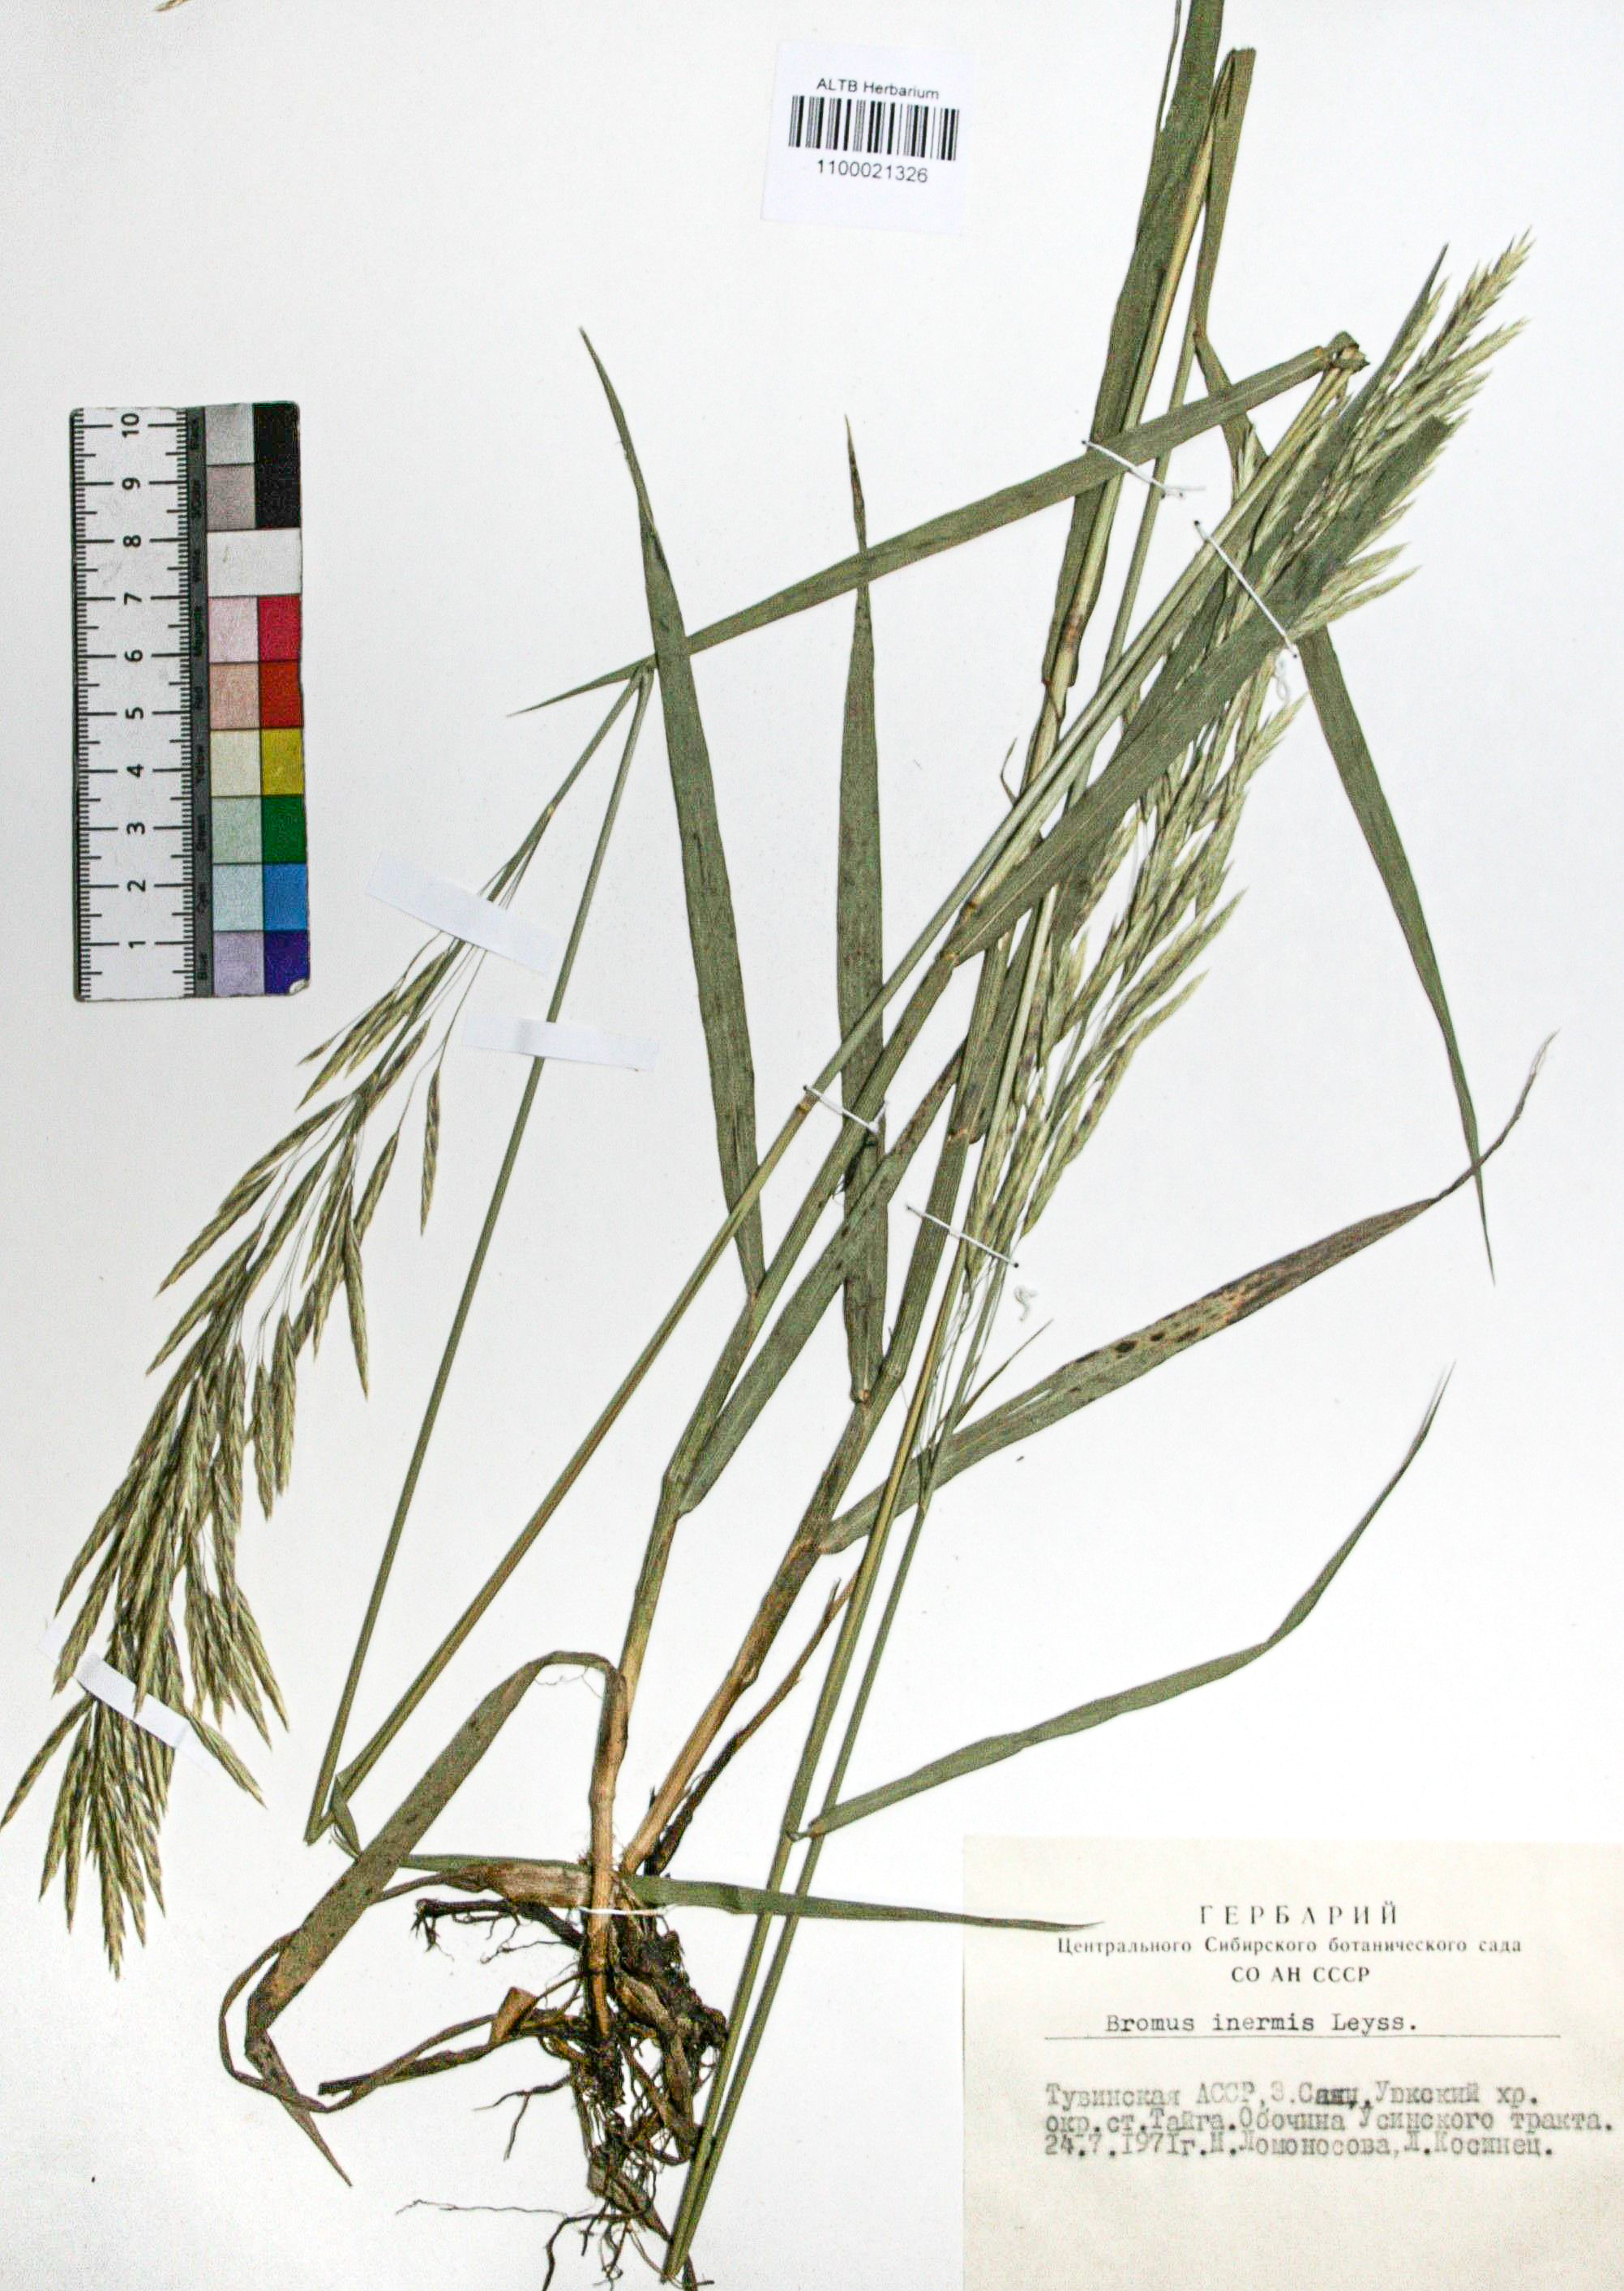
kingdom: Plantae
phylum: Tracheophyta
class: Liliopsida
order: Poales
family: Poaceae
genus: Bromus
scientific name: Bromus inermis
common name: Smooth brome
